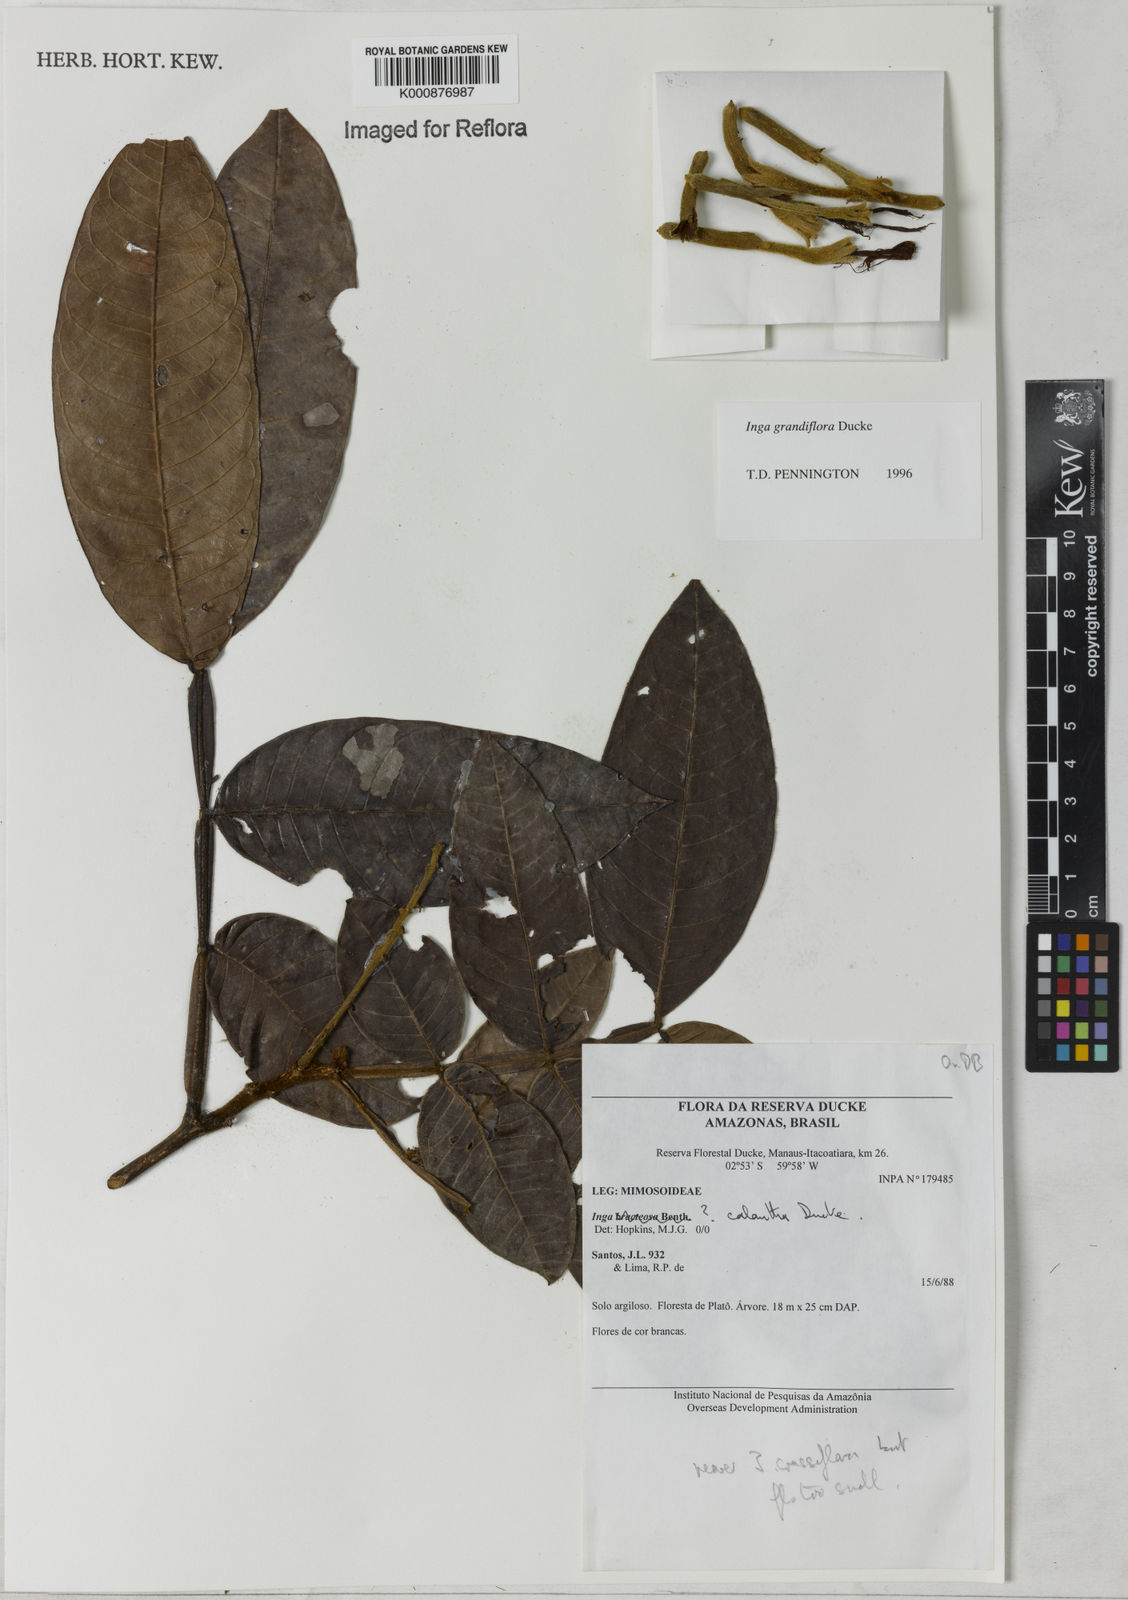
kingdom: Plantae
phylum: Tracheophyta
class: Magnoliopsida
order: Fabales
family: Fabaceae
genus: Inga
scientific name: Inga crassiflora
